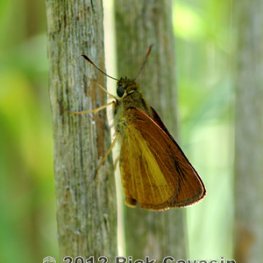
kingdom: Animalia
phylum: Arthropoda
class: Insecta
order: Lepidoptera
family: Hesperiidae
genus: Euphyes
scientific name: Euphyes dukesi
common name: Dukes' Skipper
